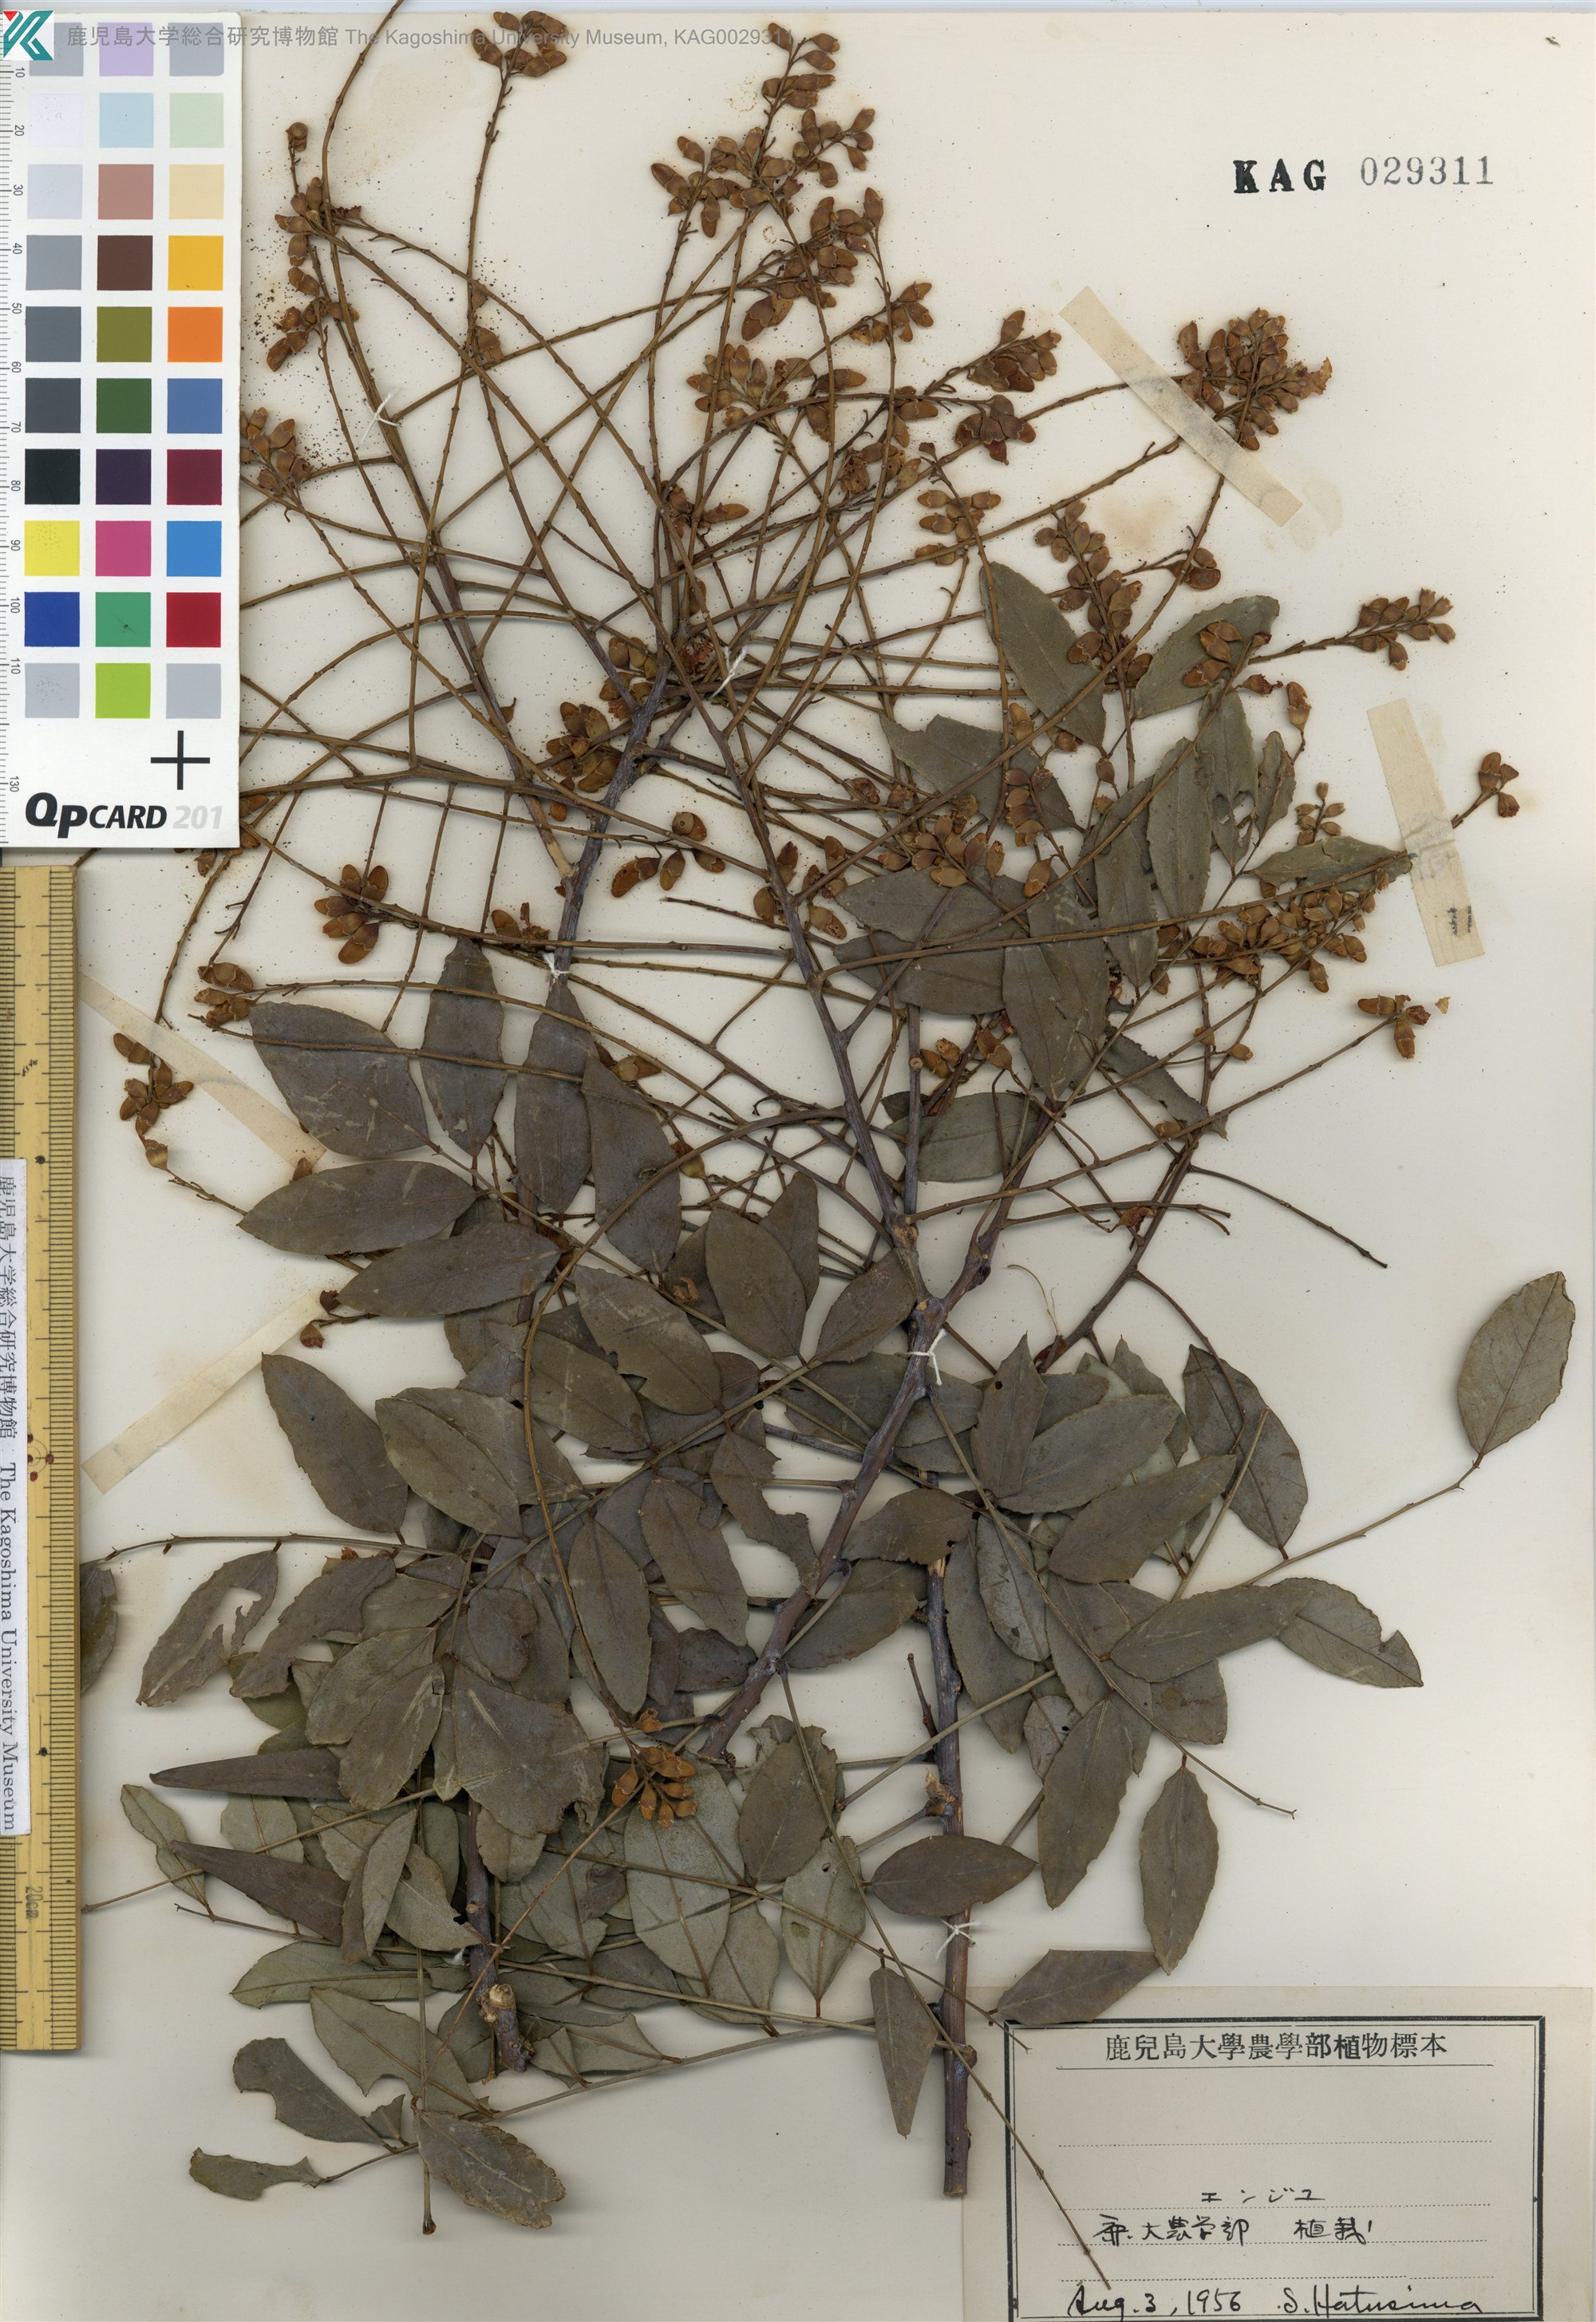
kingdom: Plantae
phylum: Tracheophyta
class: Magnoliopsida
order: Fabales
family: Fabaceae
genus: Styphnolobium
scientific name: Styphnolobium japonicum
